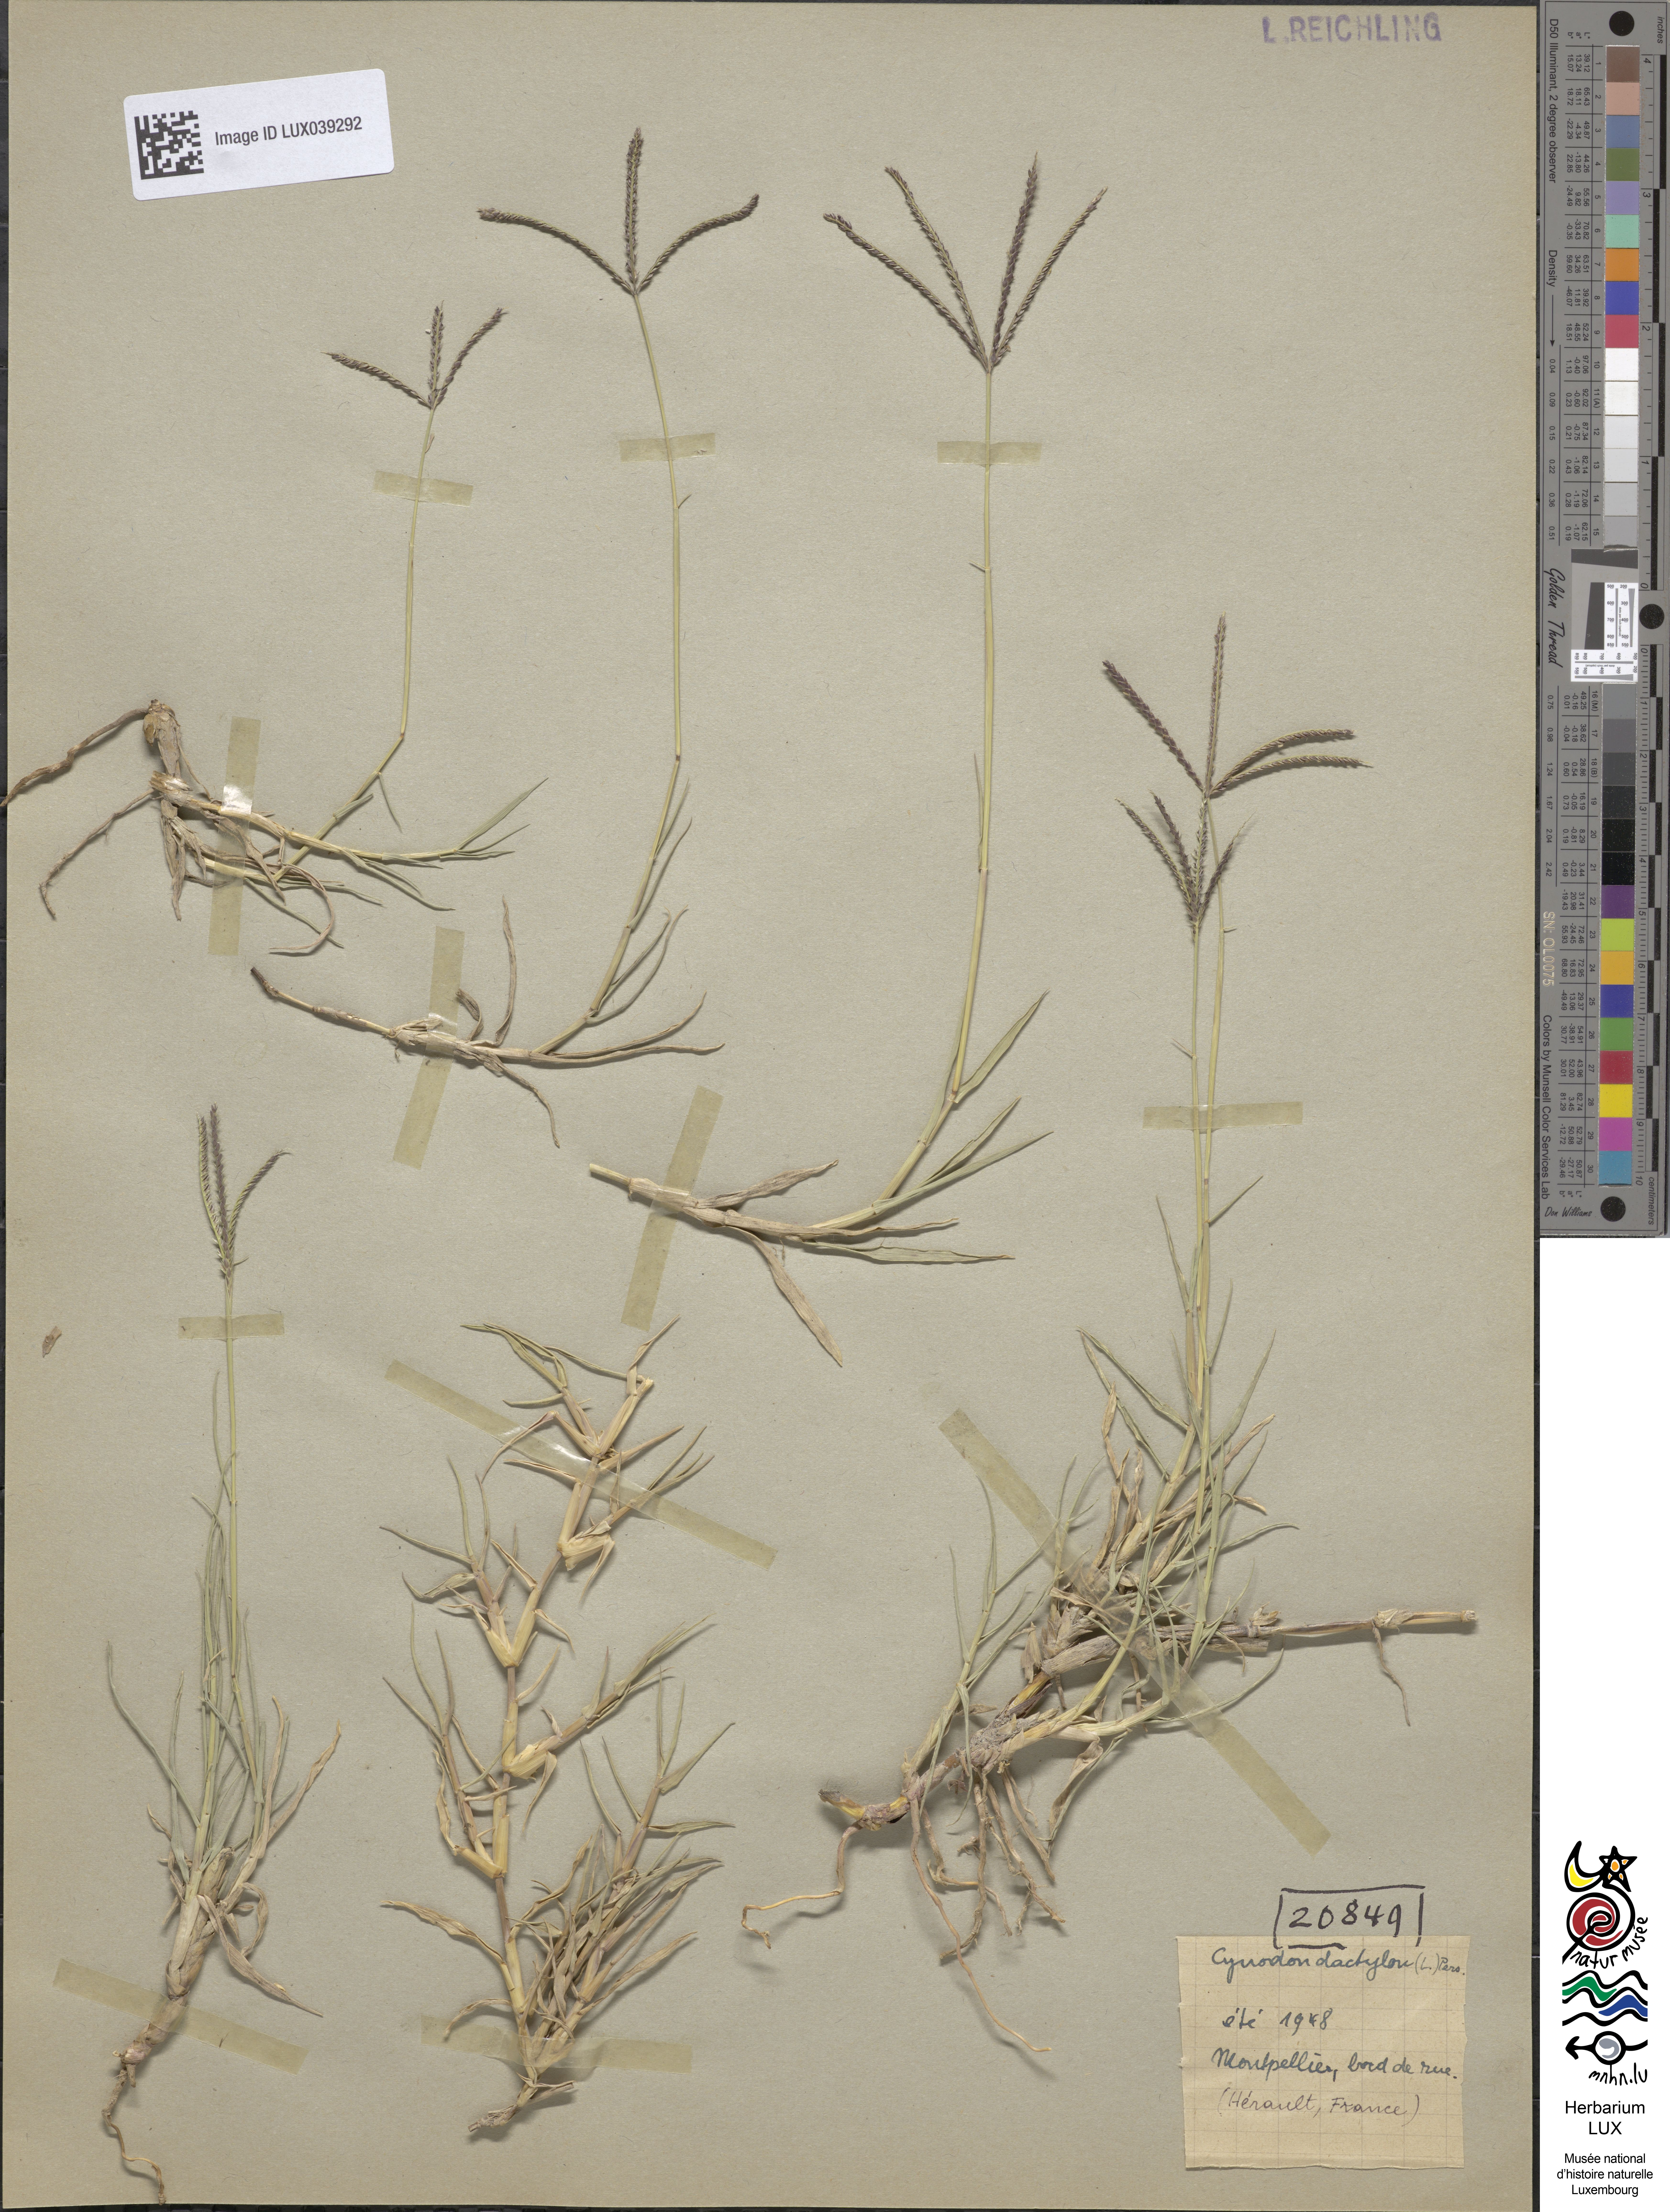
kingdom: Plantae
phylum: Tracheophyta
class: Liliopsida
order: Poales
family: Poaceae
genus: Cynodon
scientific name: Cynodon dactylon
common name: Bermuda grass
